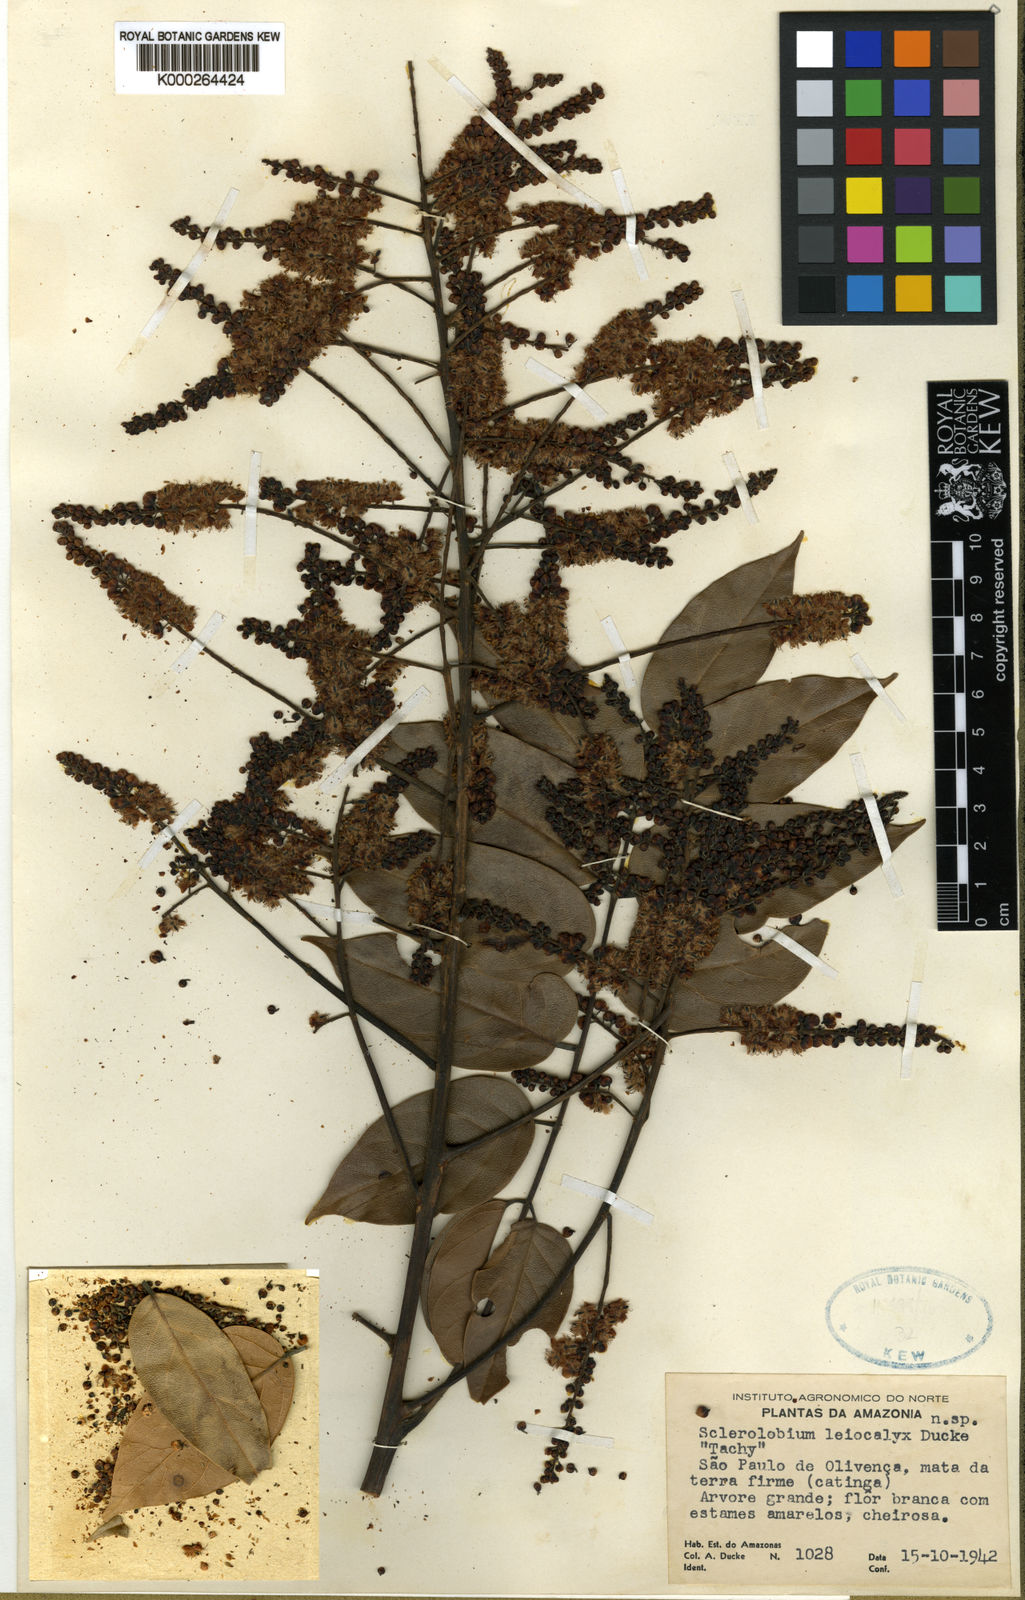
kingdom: Plantae
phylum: Tracheophyta
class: Magnoliopsida
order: Fabales
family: Fabaceae
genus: Tachigali
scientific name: Tachigali leiocalyx
